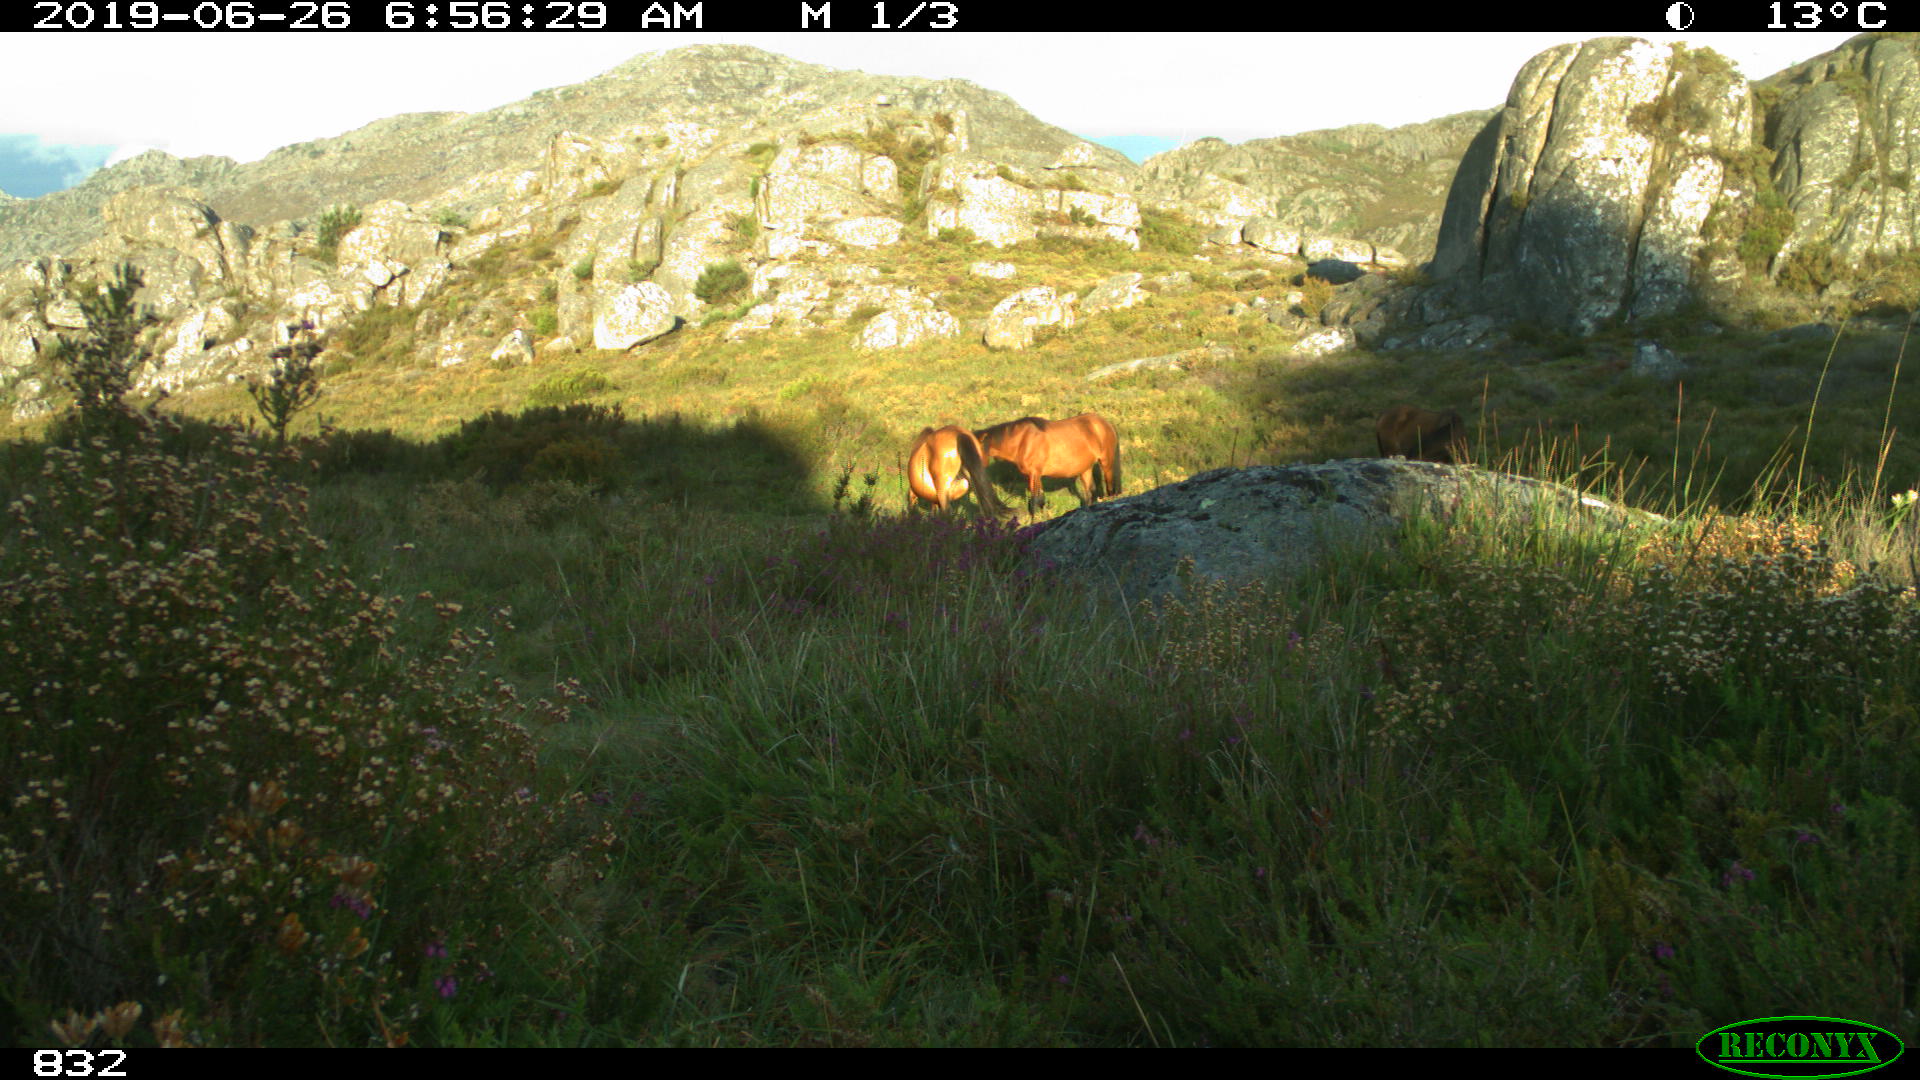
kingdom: Animalia
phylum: Chordata
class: Mammalia
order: Perissodactyla
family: Equidae
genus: Equus
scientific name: Equus caballus
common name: Horse
